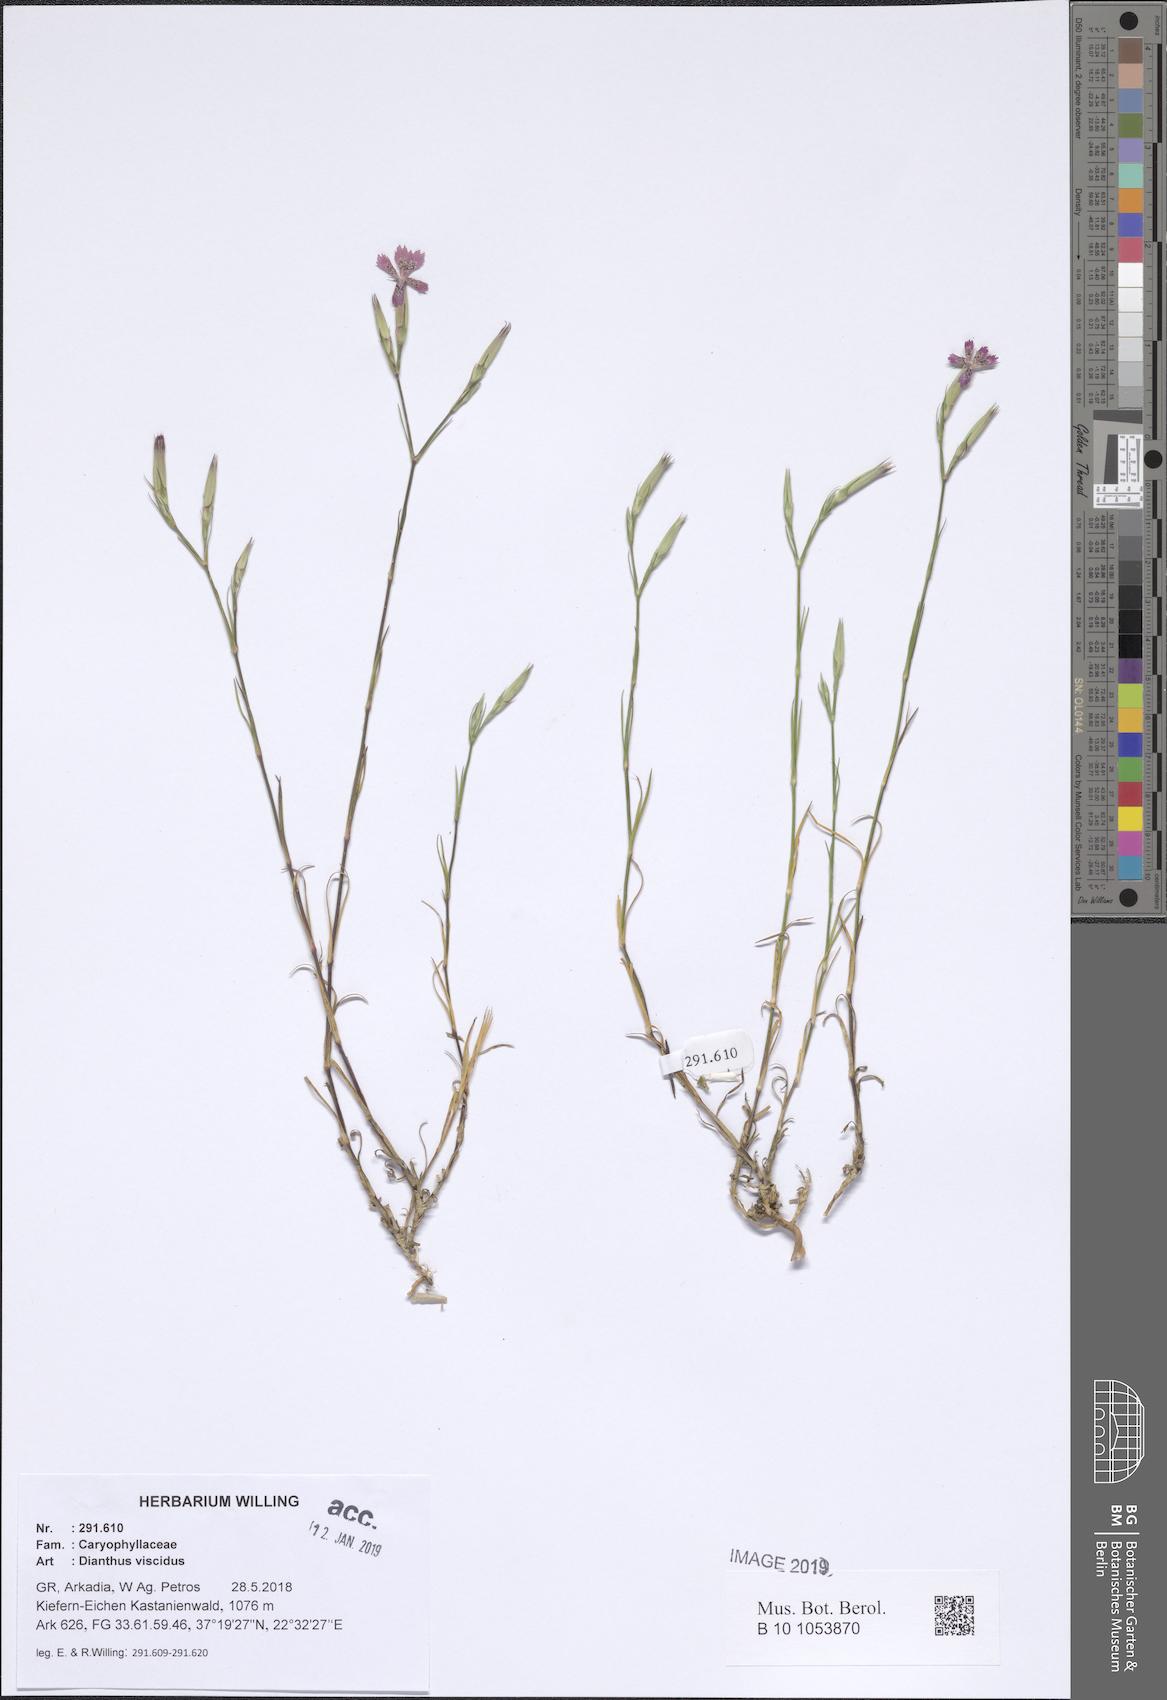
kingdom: Plantae
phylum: Tracheophyta
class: Magnoliopsida
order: Caryophyllales
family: Caryophyllaceae
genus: Dianthus
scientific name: Dianthus viscidus
